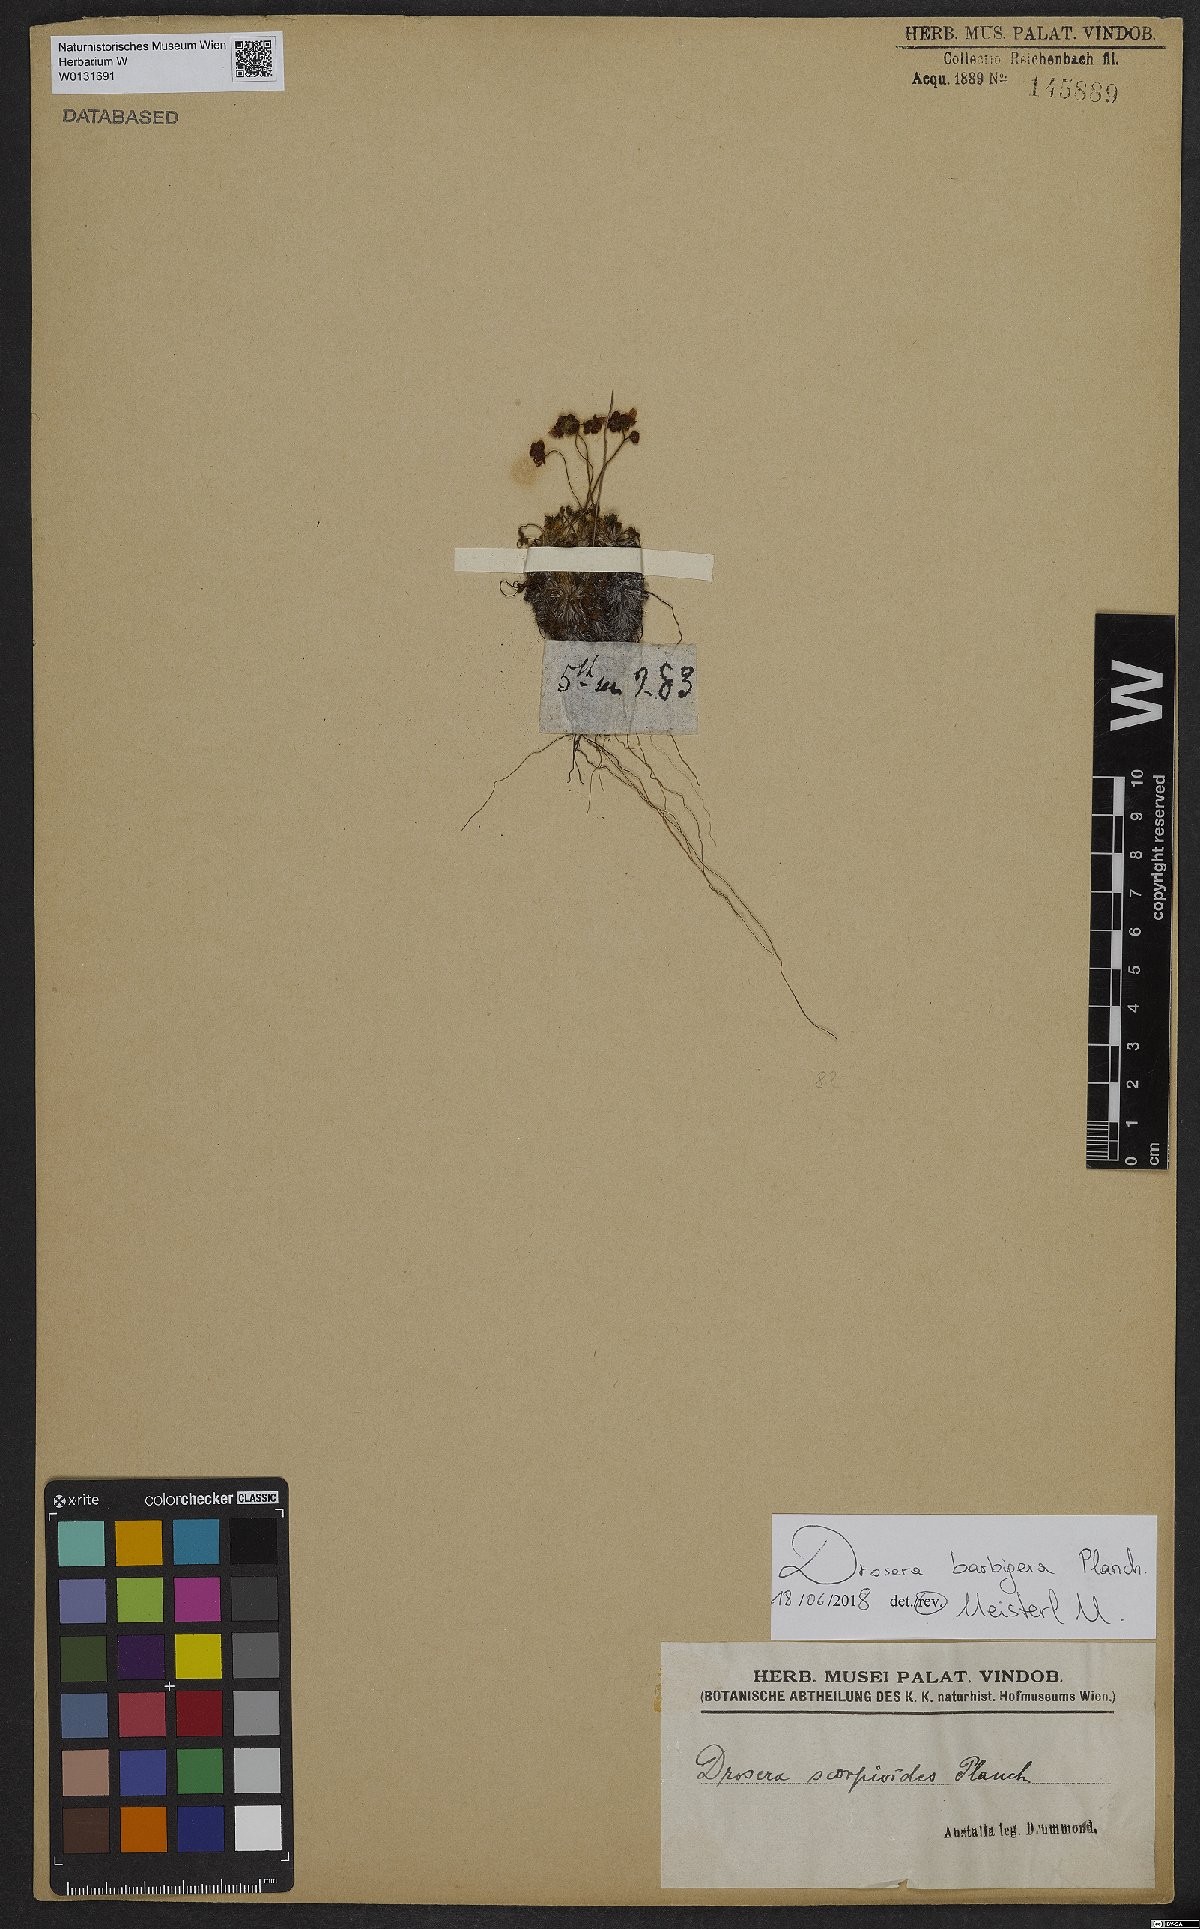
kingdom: Plantae
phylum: Tracheophyta
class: Magnoliopsida
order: Caryophyllales
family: Droseraceae
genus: Drosera
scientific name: Drosera barbigera
